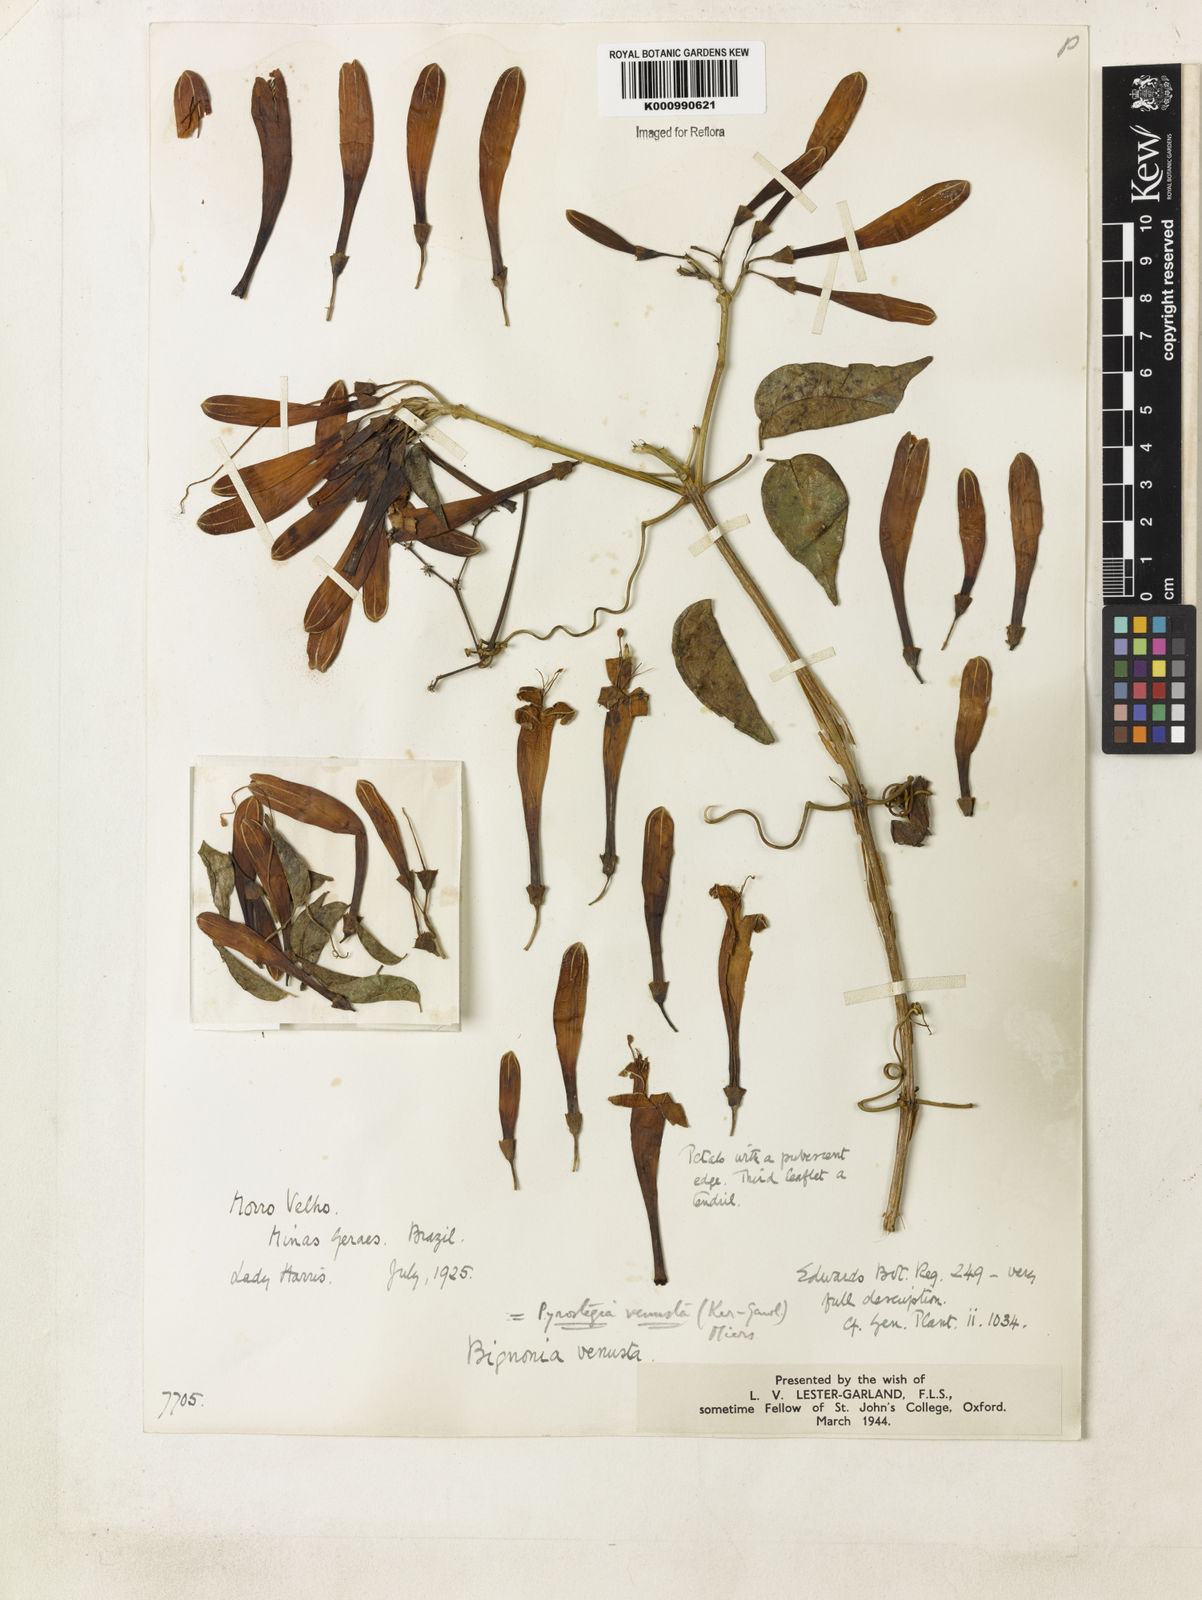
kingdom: Plantae
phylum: Tracheophyta
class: Magnoliopsida
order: Lamiales
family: Bignoniaceae
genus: Pyrostegia
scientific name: Pyrostegia venusta
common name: Flamevine
